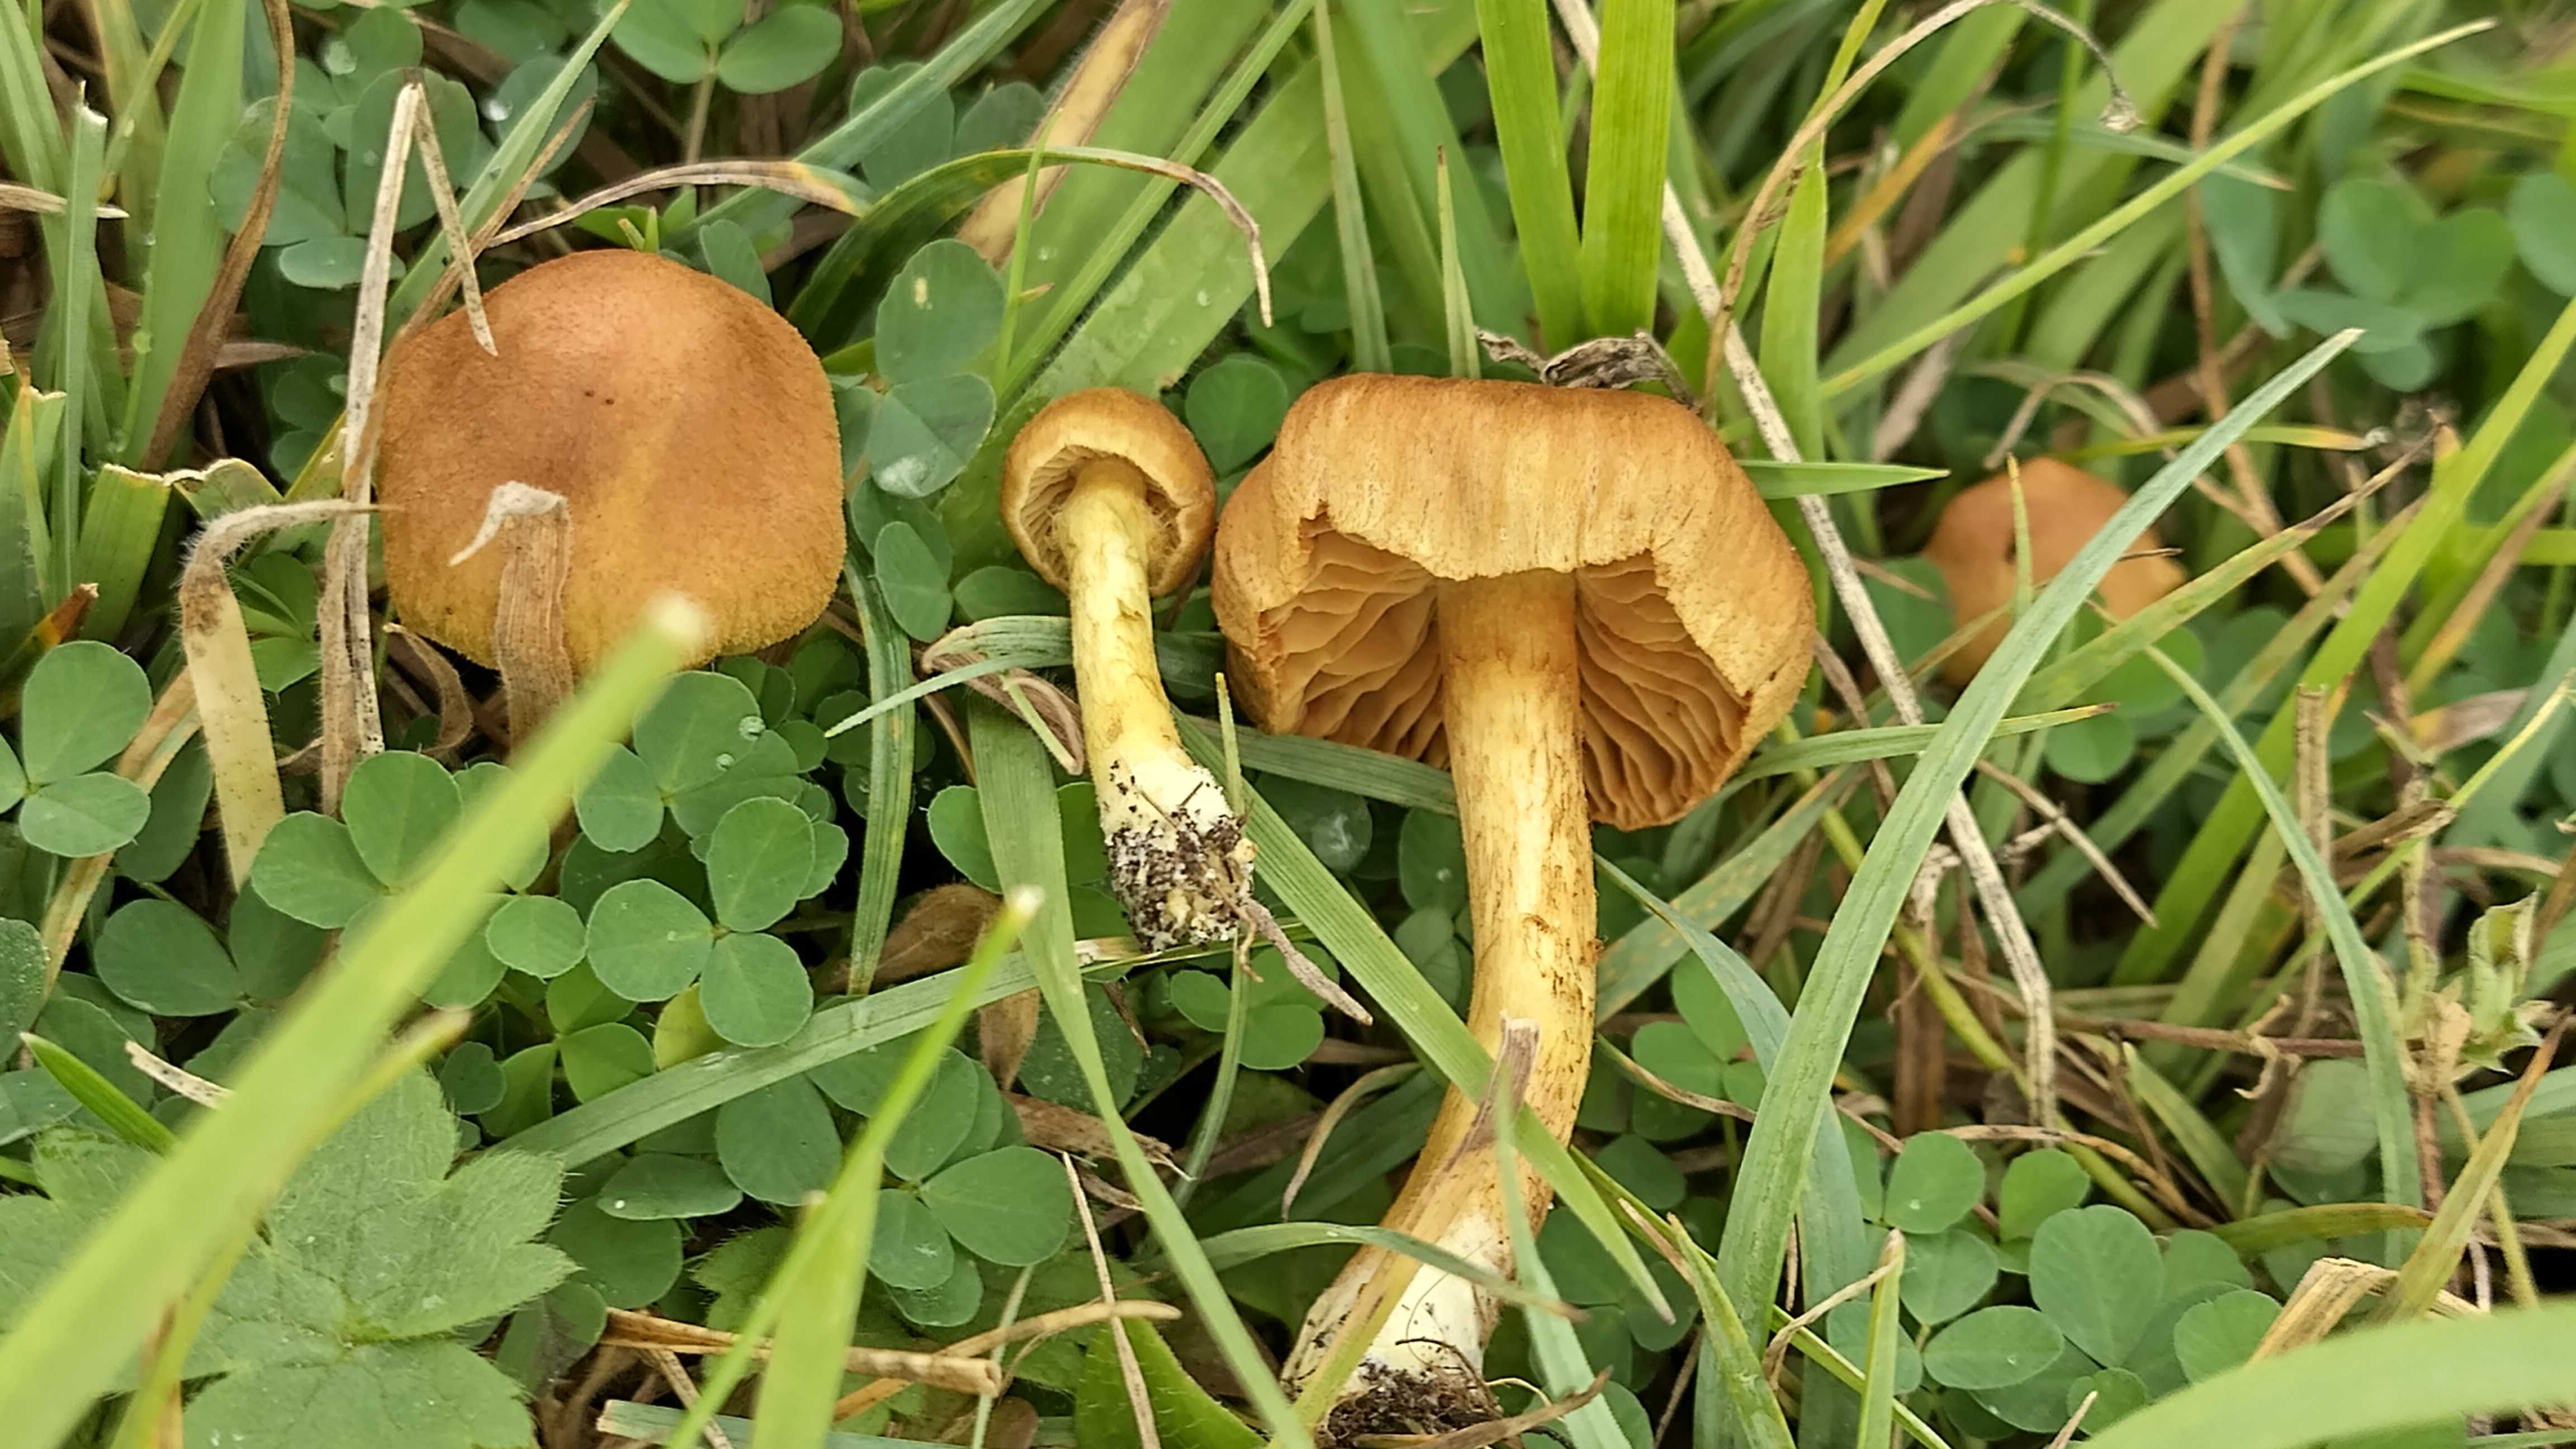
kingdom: Fungi
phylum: Basidiomycota
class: Agaricomycetes
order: Agaricales
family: Cortinariaceae
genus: Cortinarius
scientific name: Cortinarius
